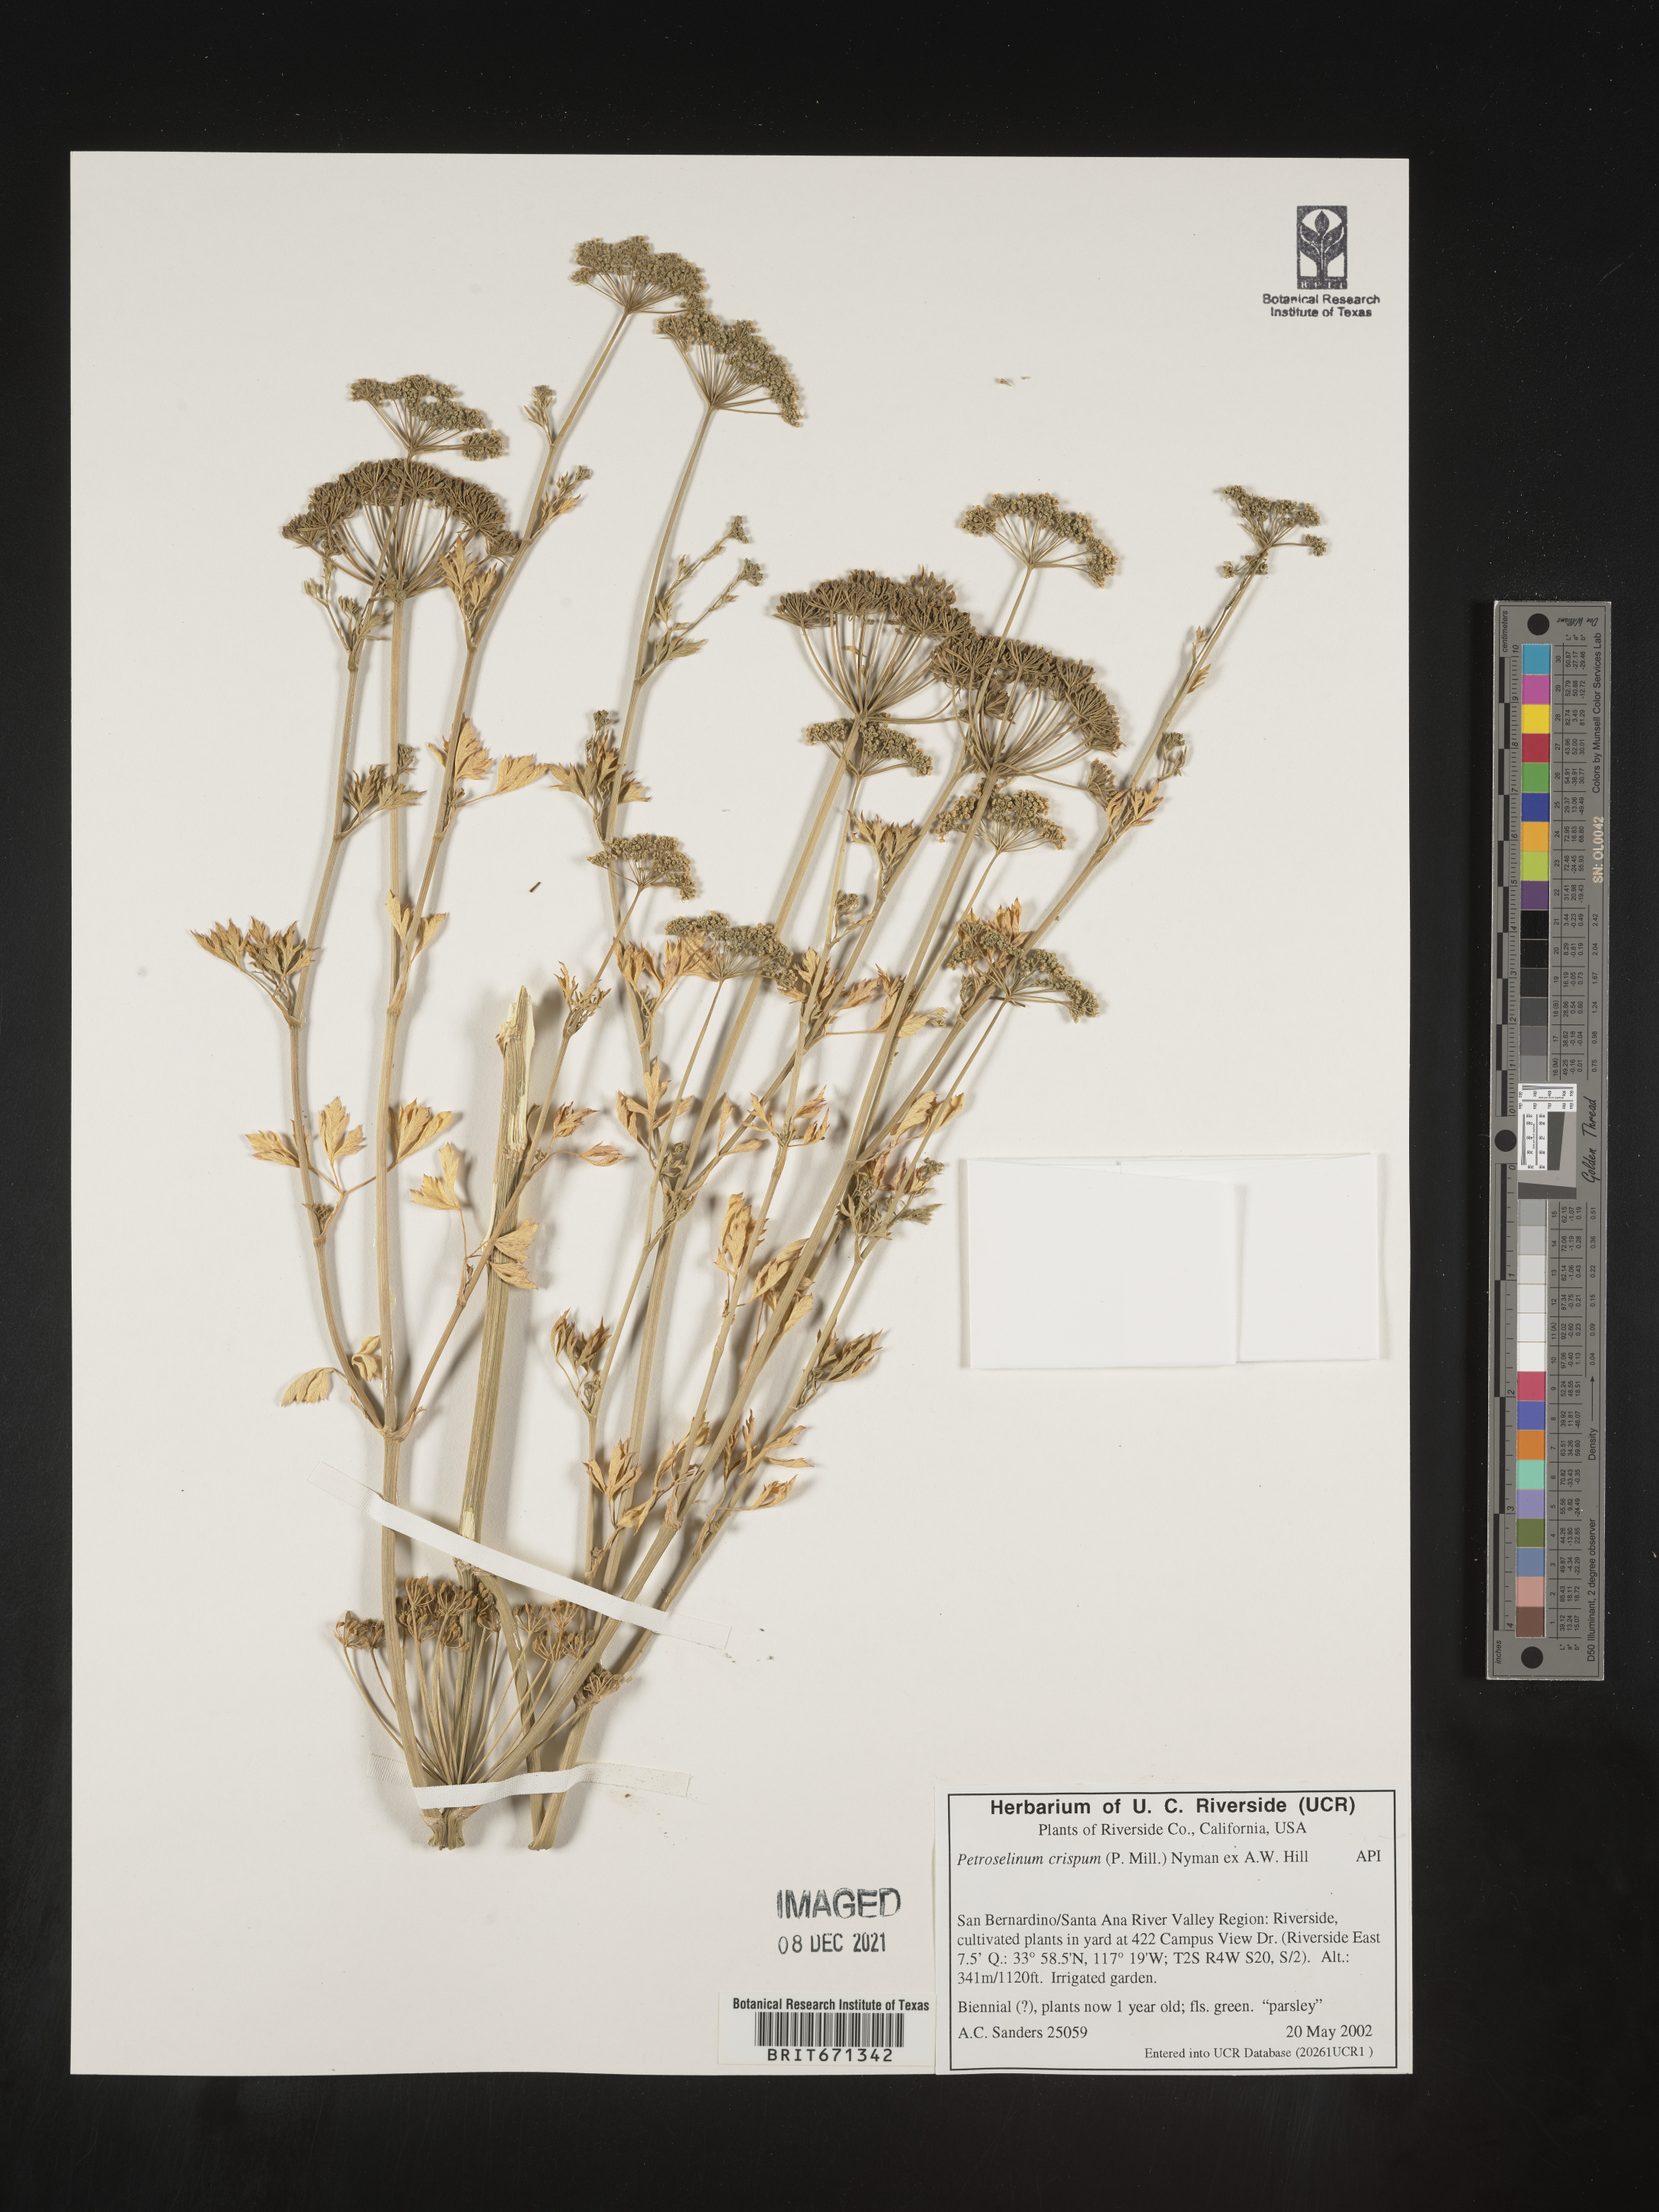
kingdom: Plantae
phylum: Tracheophyta
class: Magnoliopsida
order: Apiales
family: Apiaceae
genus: Petroselinum
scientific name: Petroselinum
